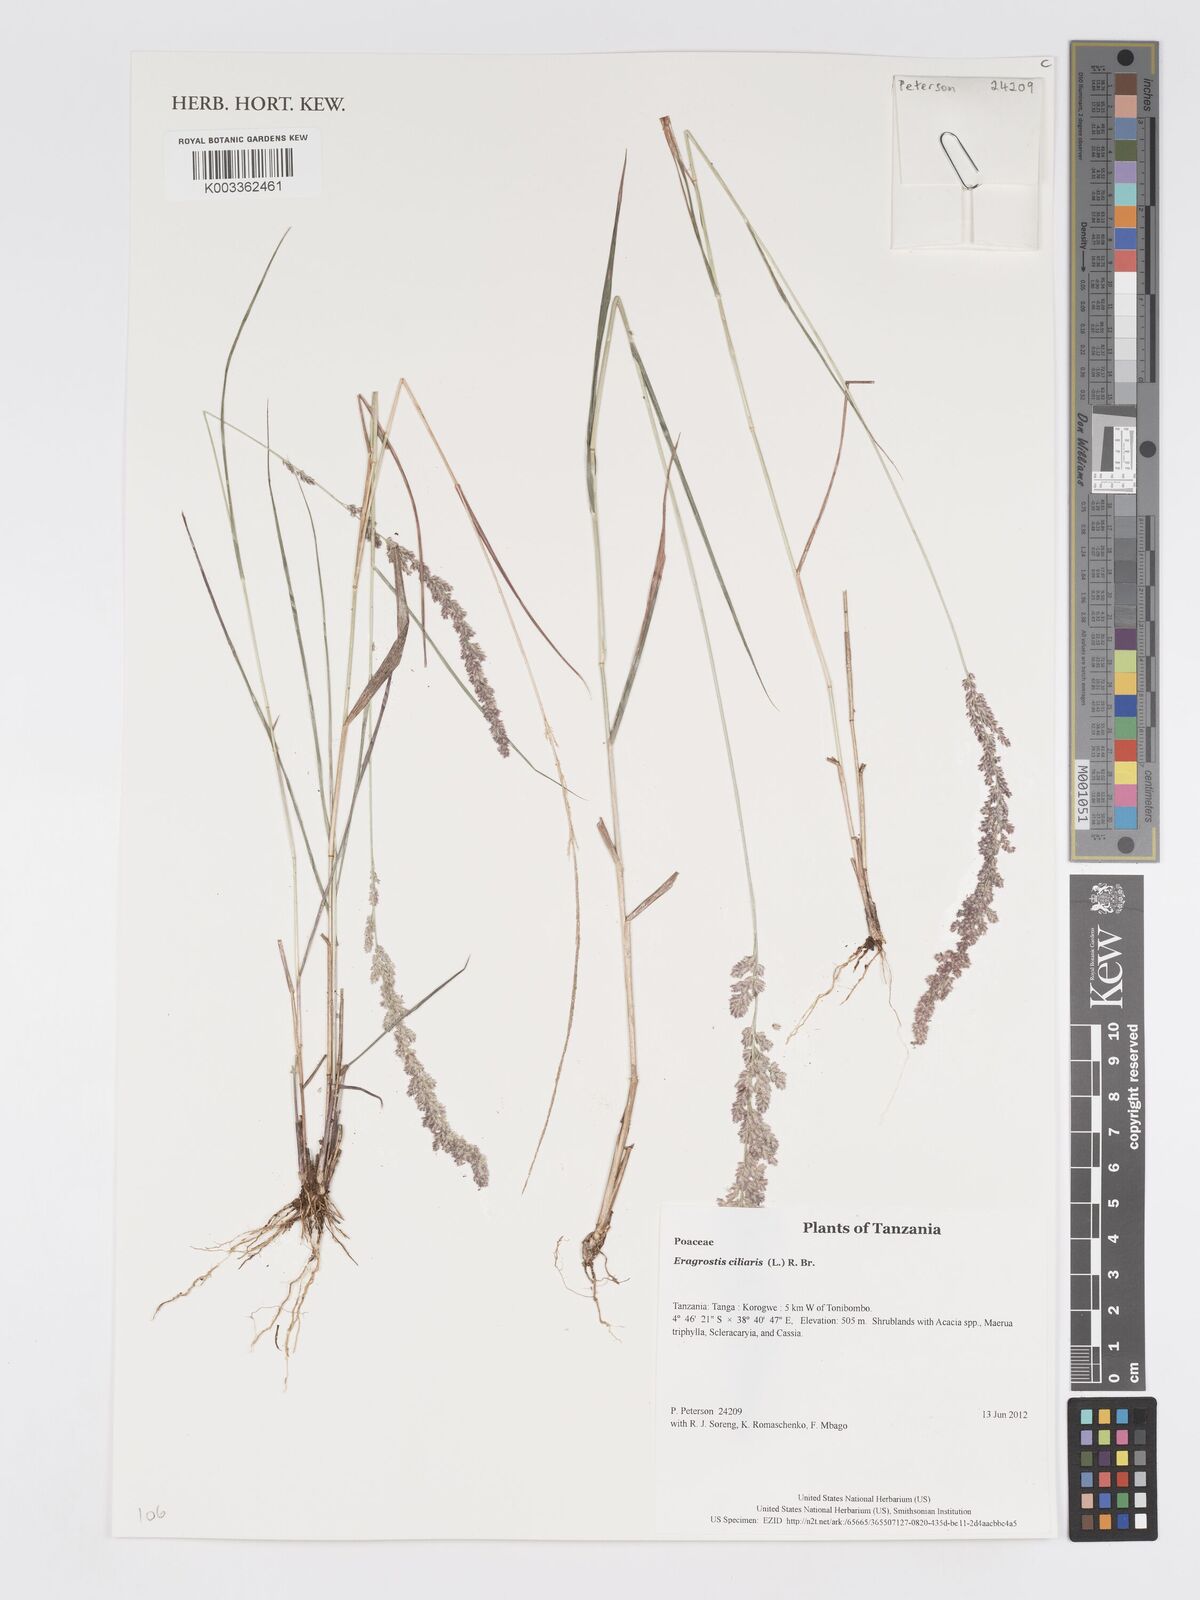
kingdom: Plantae
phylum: Tracheophyta
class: Liliopsida
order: Poales
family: Poaceae
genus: Eragrostis
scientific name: Eragrostis ciliaris
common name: Gophertail lovegrass
